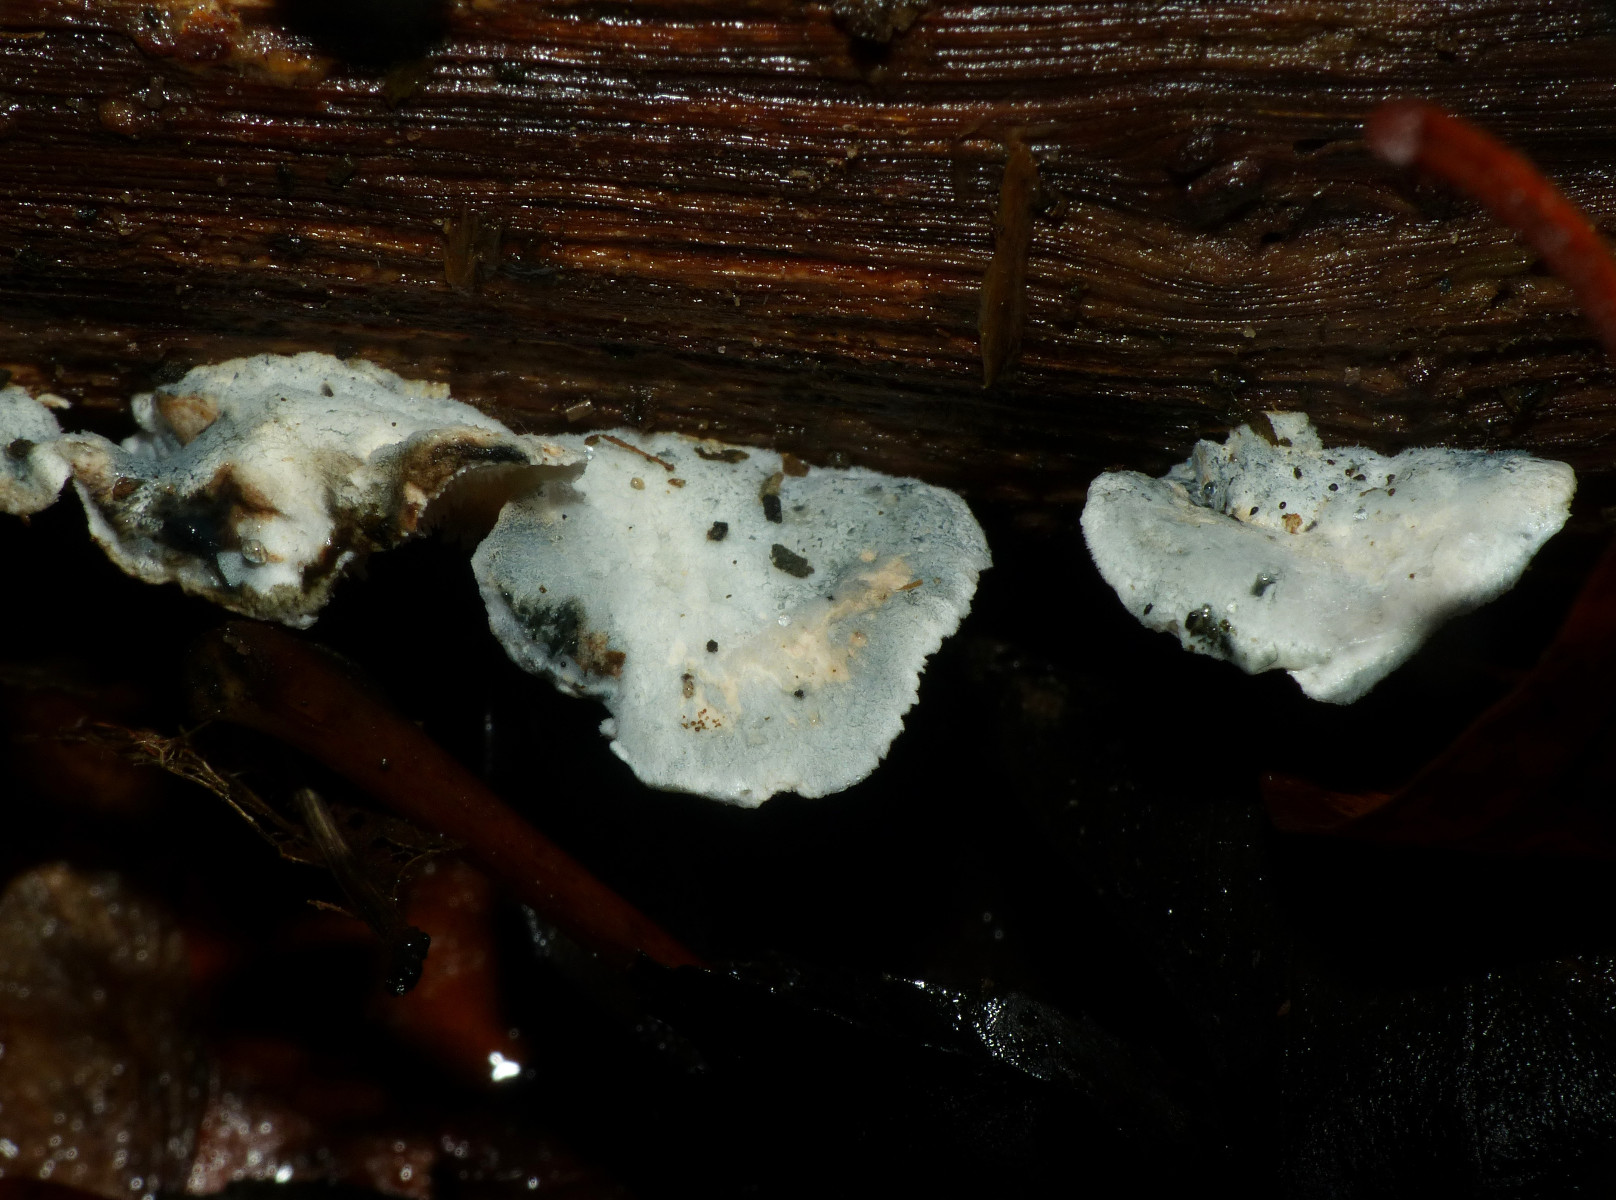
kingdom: Fungi
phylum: Basidiomycota
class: Agaricomycetes
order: Polyporales
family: Polyporaceae
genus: Cyanosporus
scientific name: Cyanosporus alni
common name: blegblå kødporesvamp
